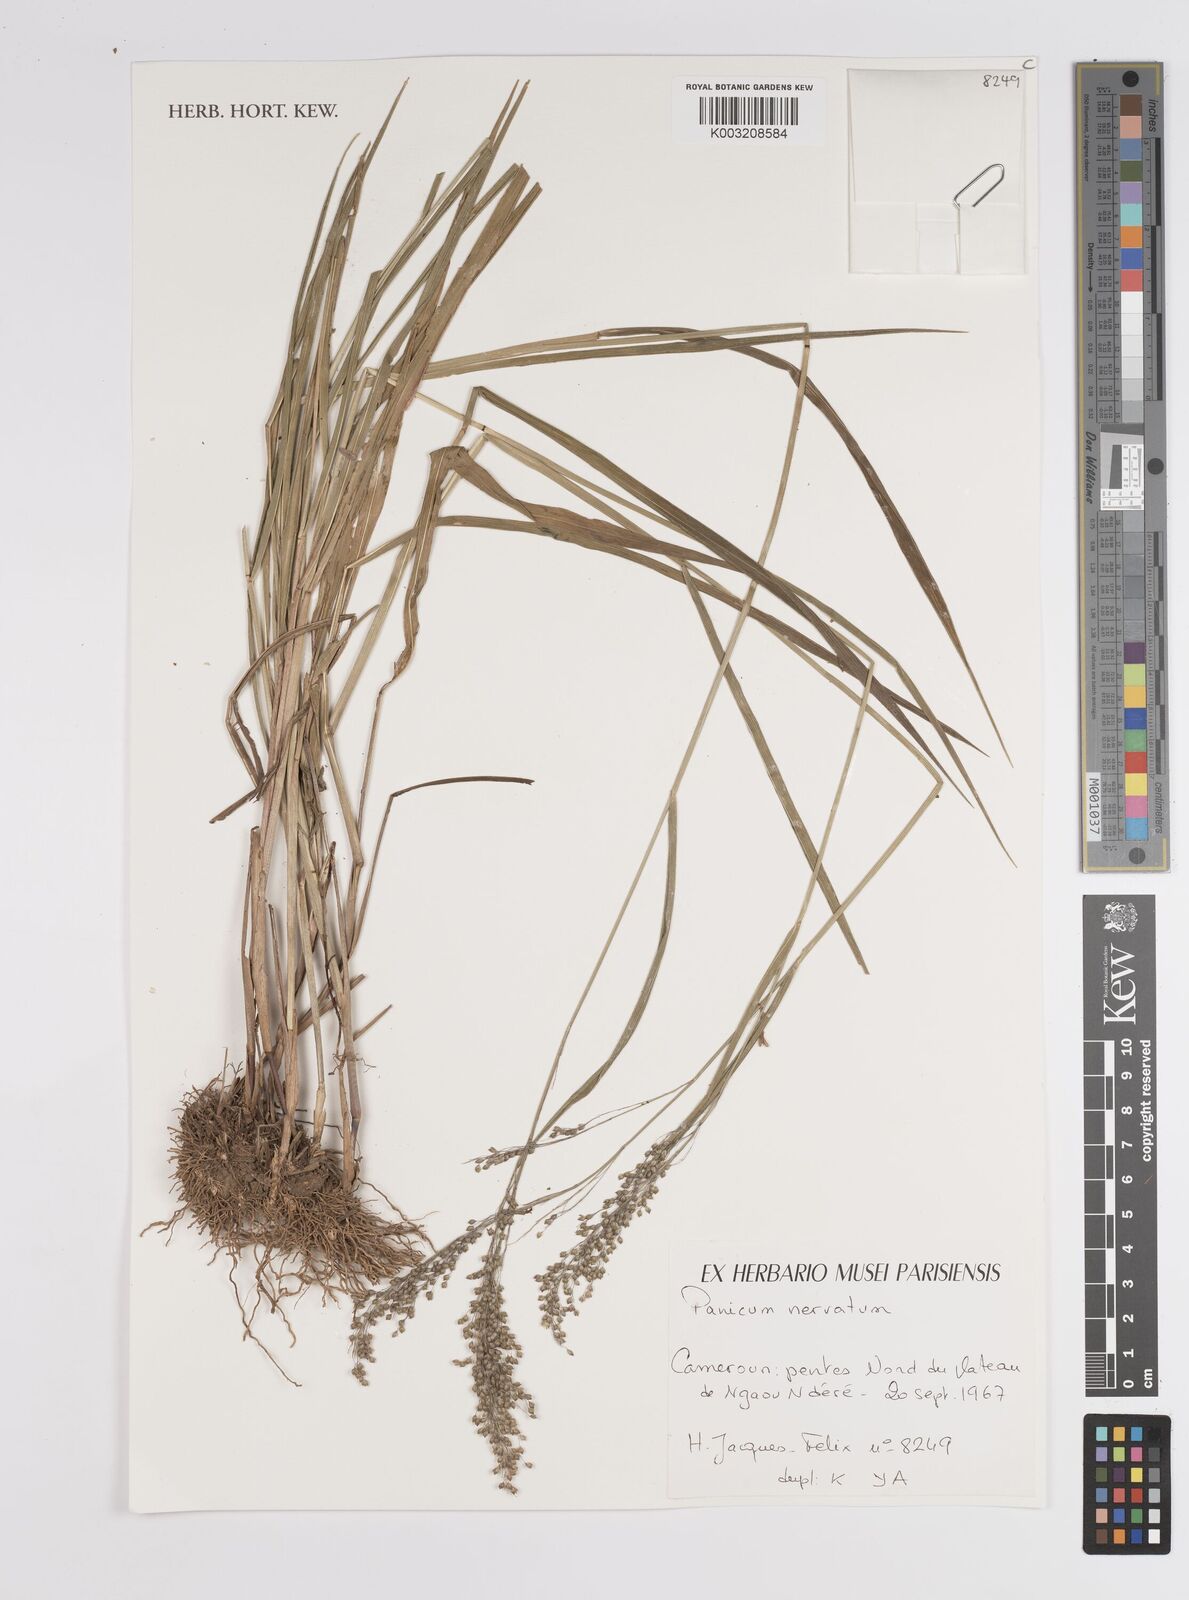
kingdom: Plantae
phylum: Tracheophyta
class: Liliopsida
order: Poales
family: Poaceae
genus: Trichanthecium
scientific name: Trichanthecium nervatum
